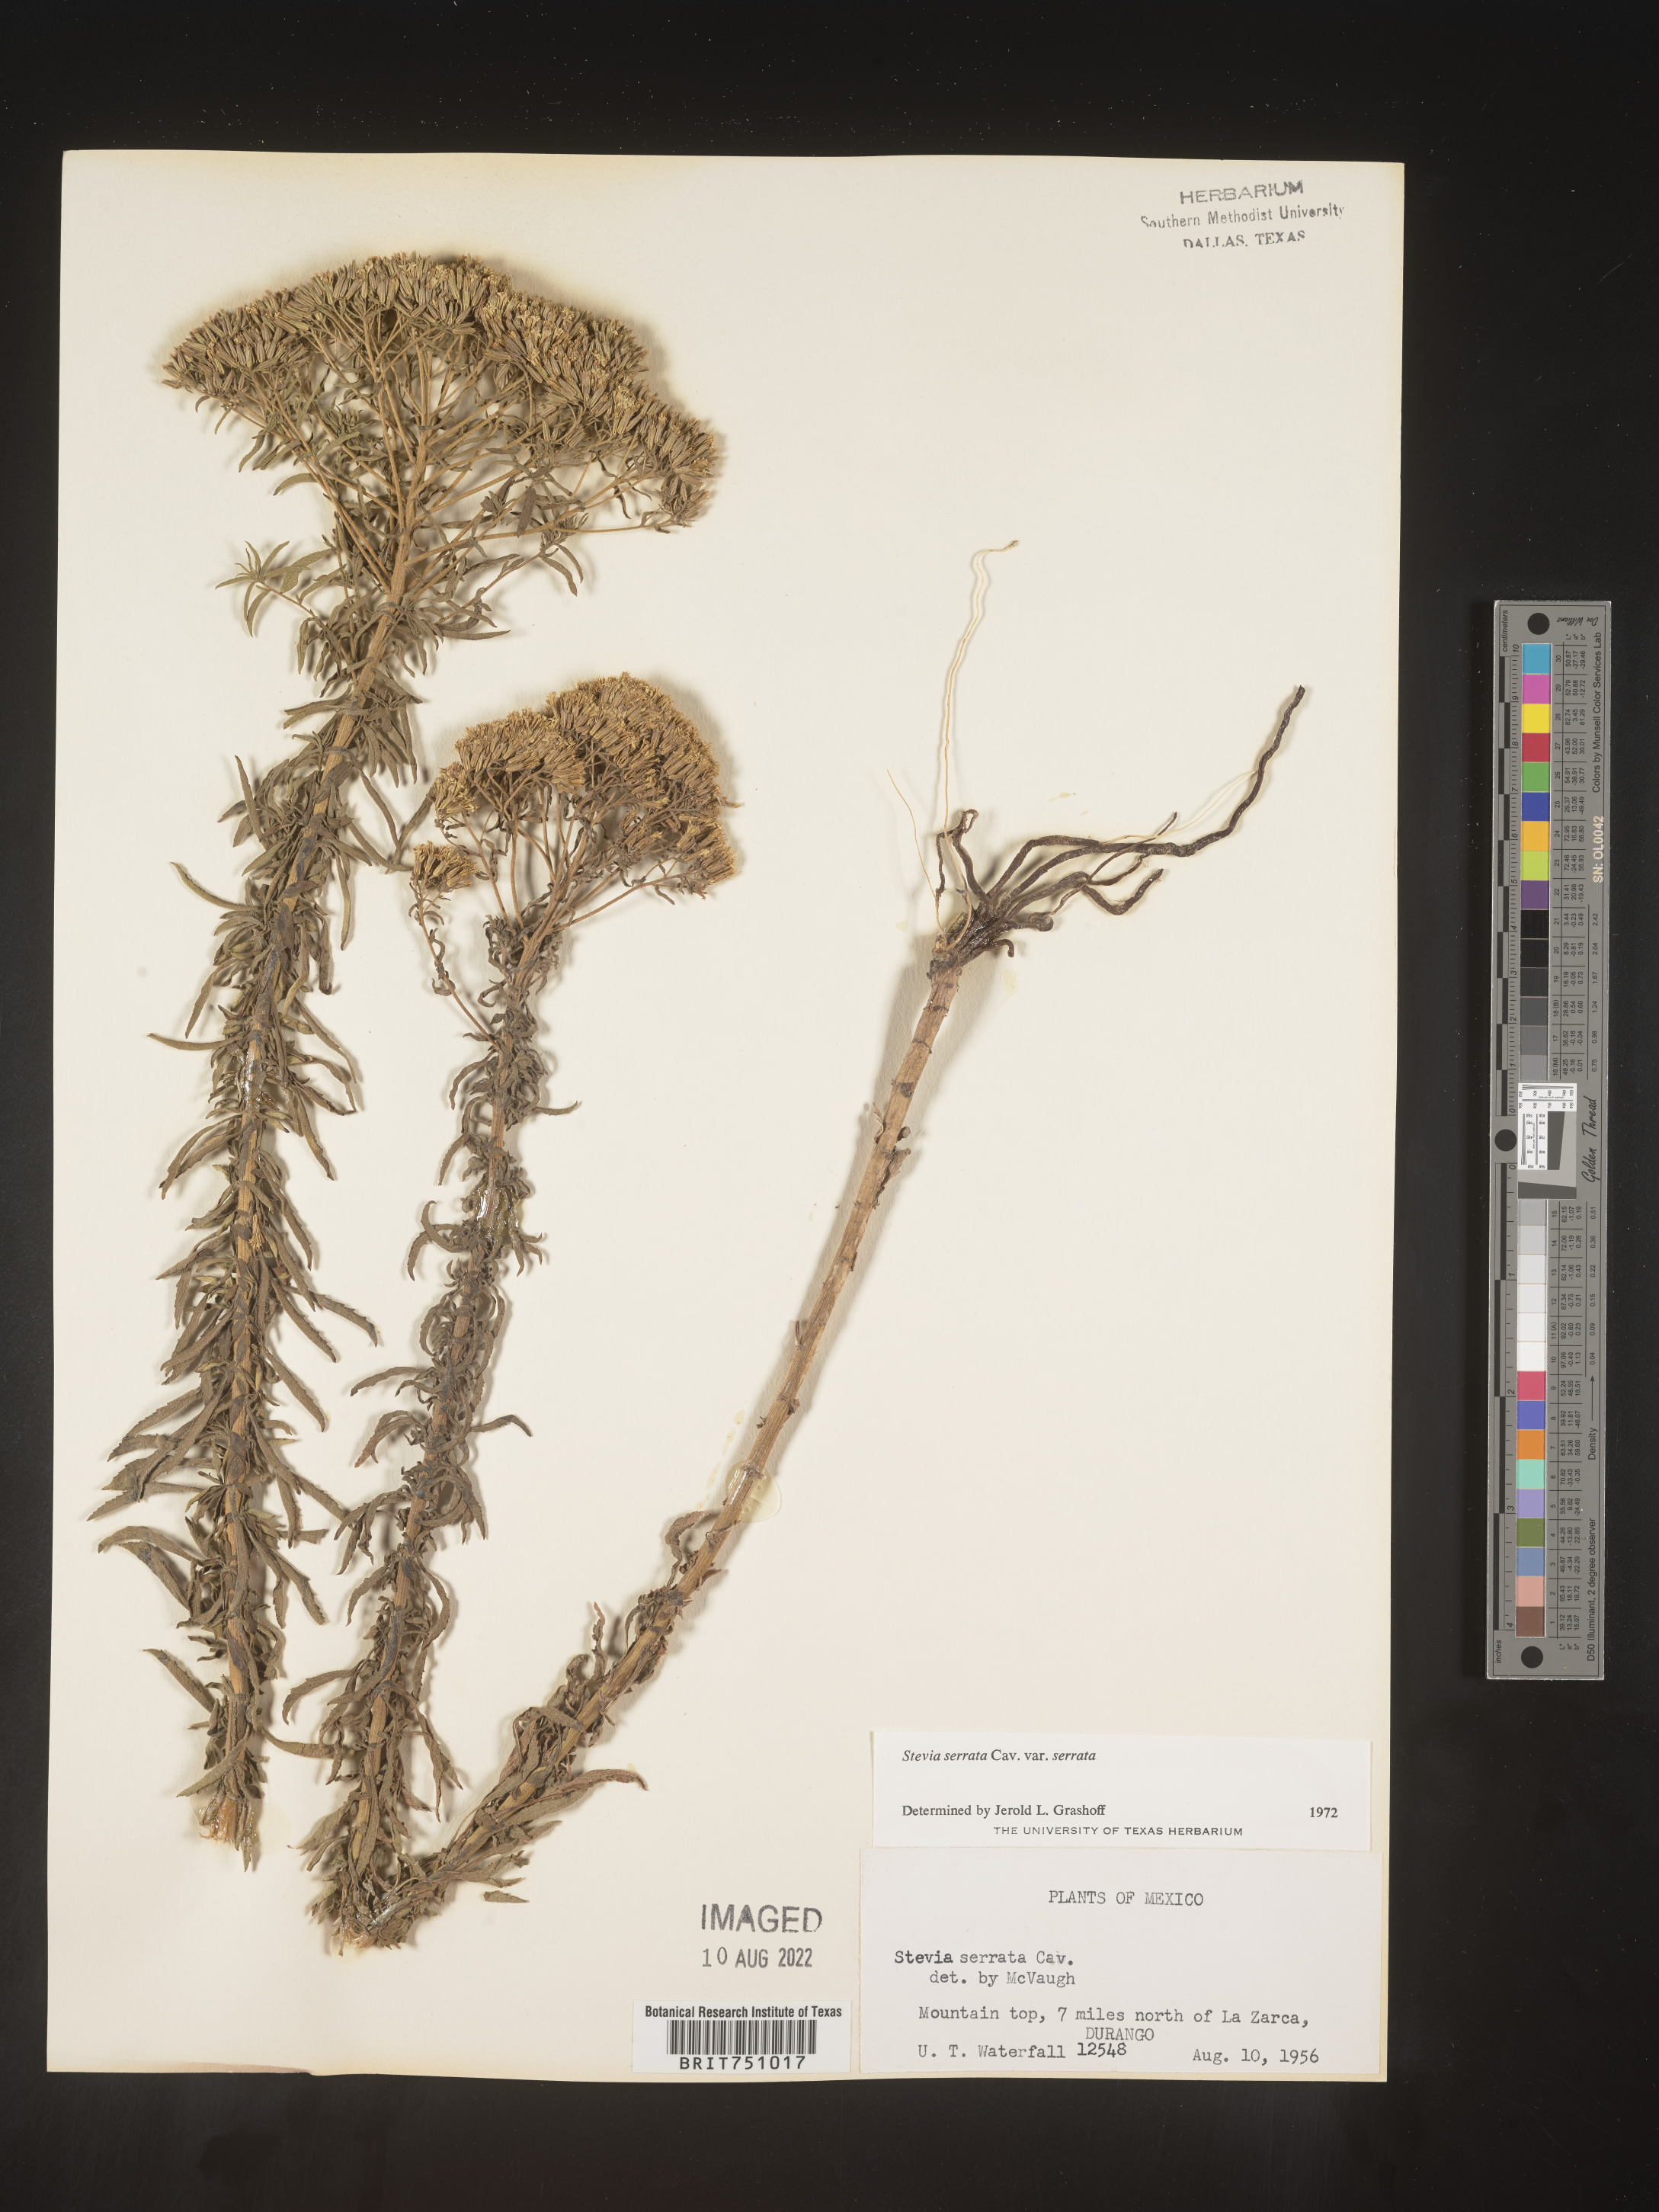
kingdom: Plantae
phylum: Tracheophyta
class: Magnoliopsida
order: Asterales
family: Asteraceae
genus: Stevia
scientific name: Stevia serrata
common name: Sawtooth candyleaf
